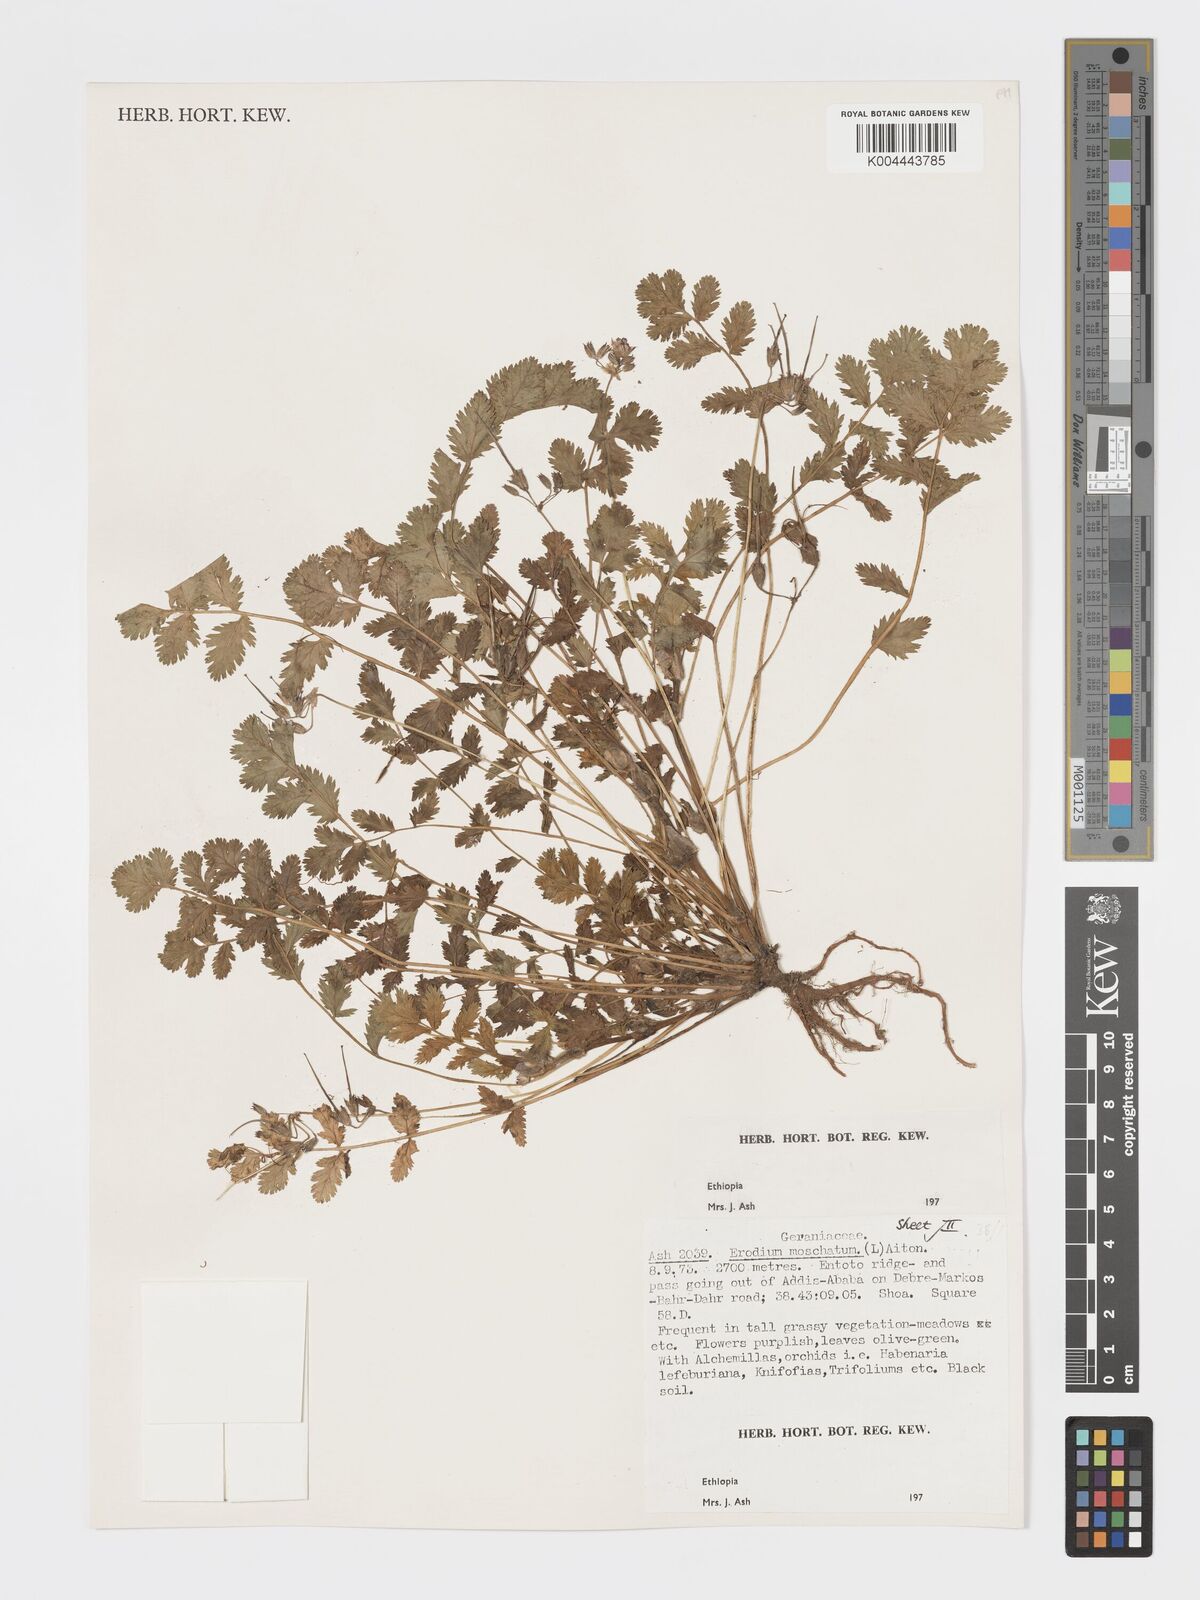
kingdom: Plantae
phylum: Tracheophyta
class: Magnoliopsida
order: Geraniales
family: Geraniaceae
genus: Erodium
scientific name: Erodium moschatum
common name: Musk stork's-bill
